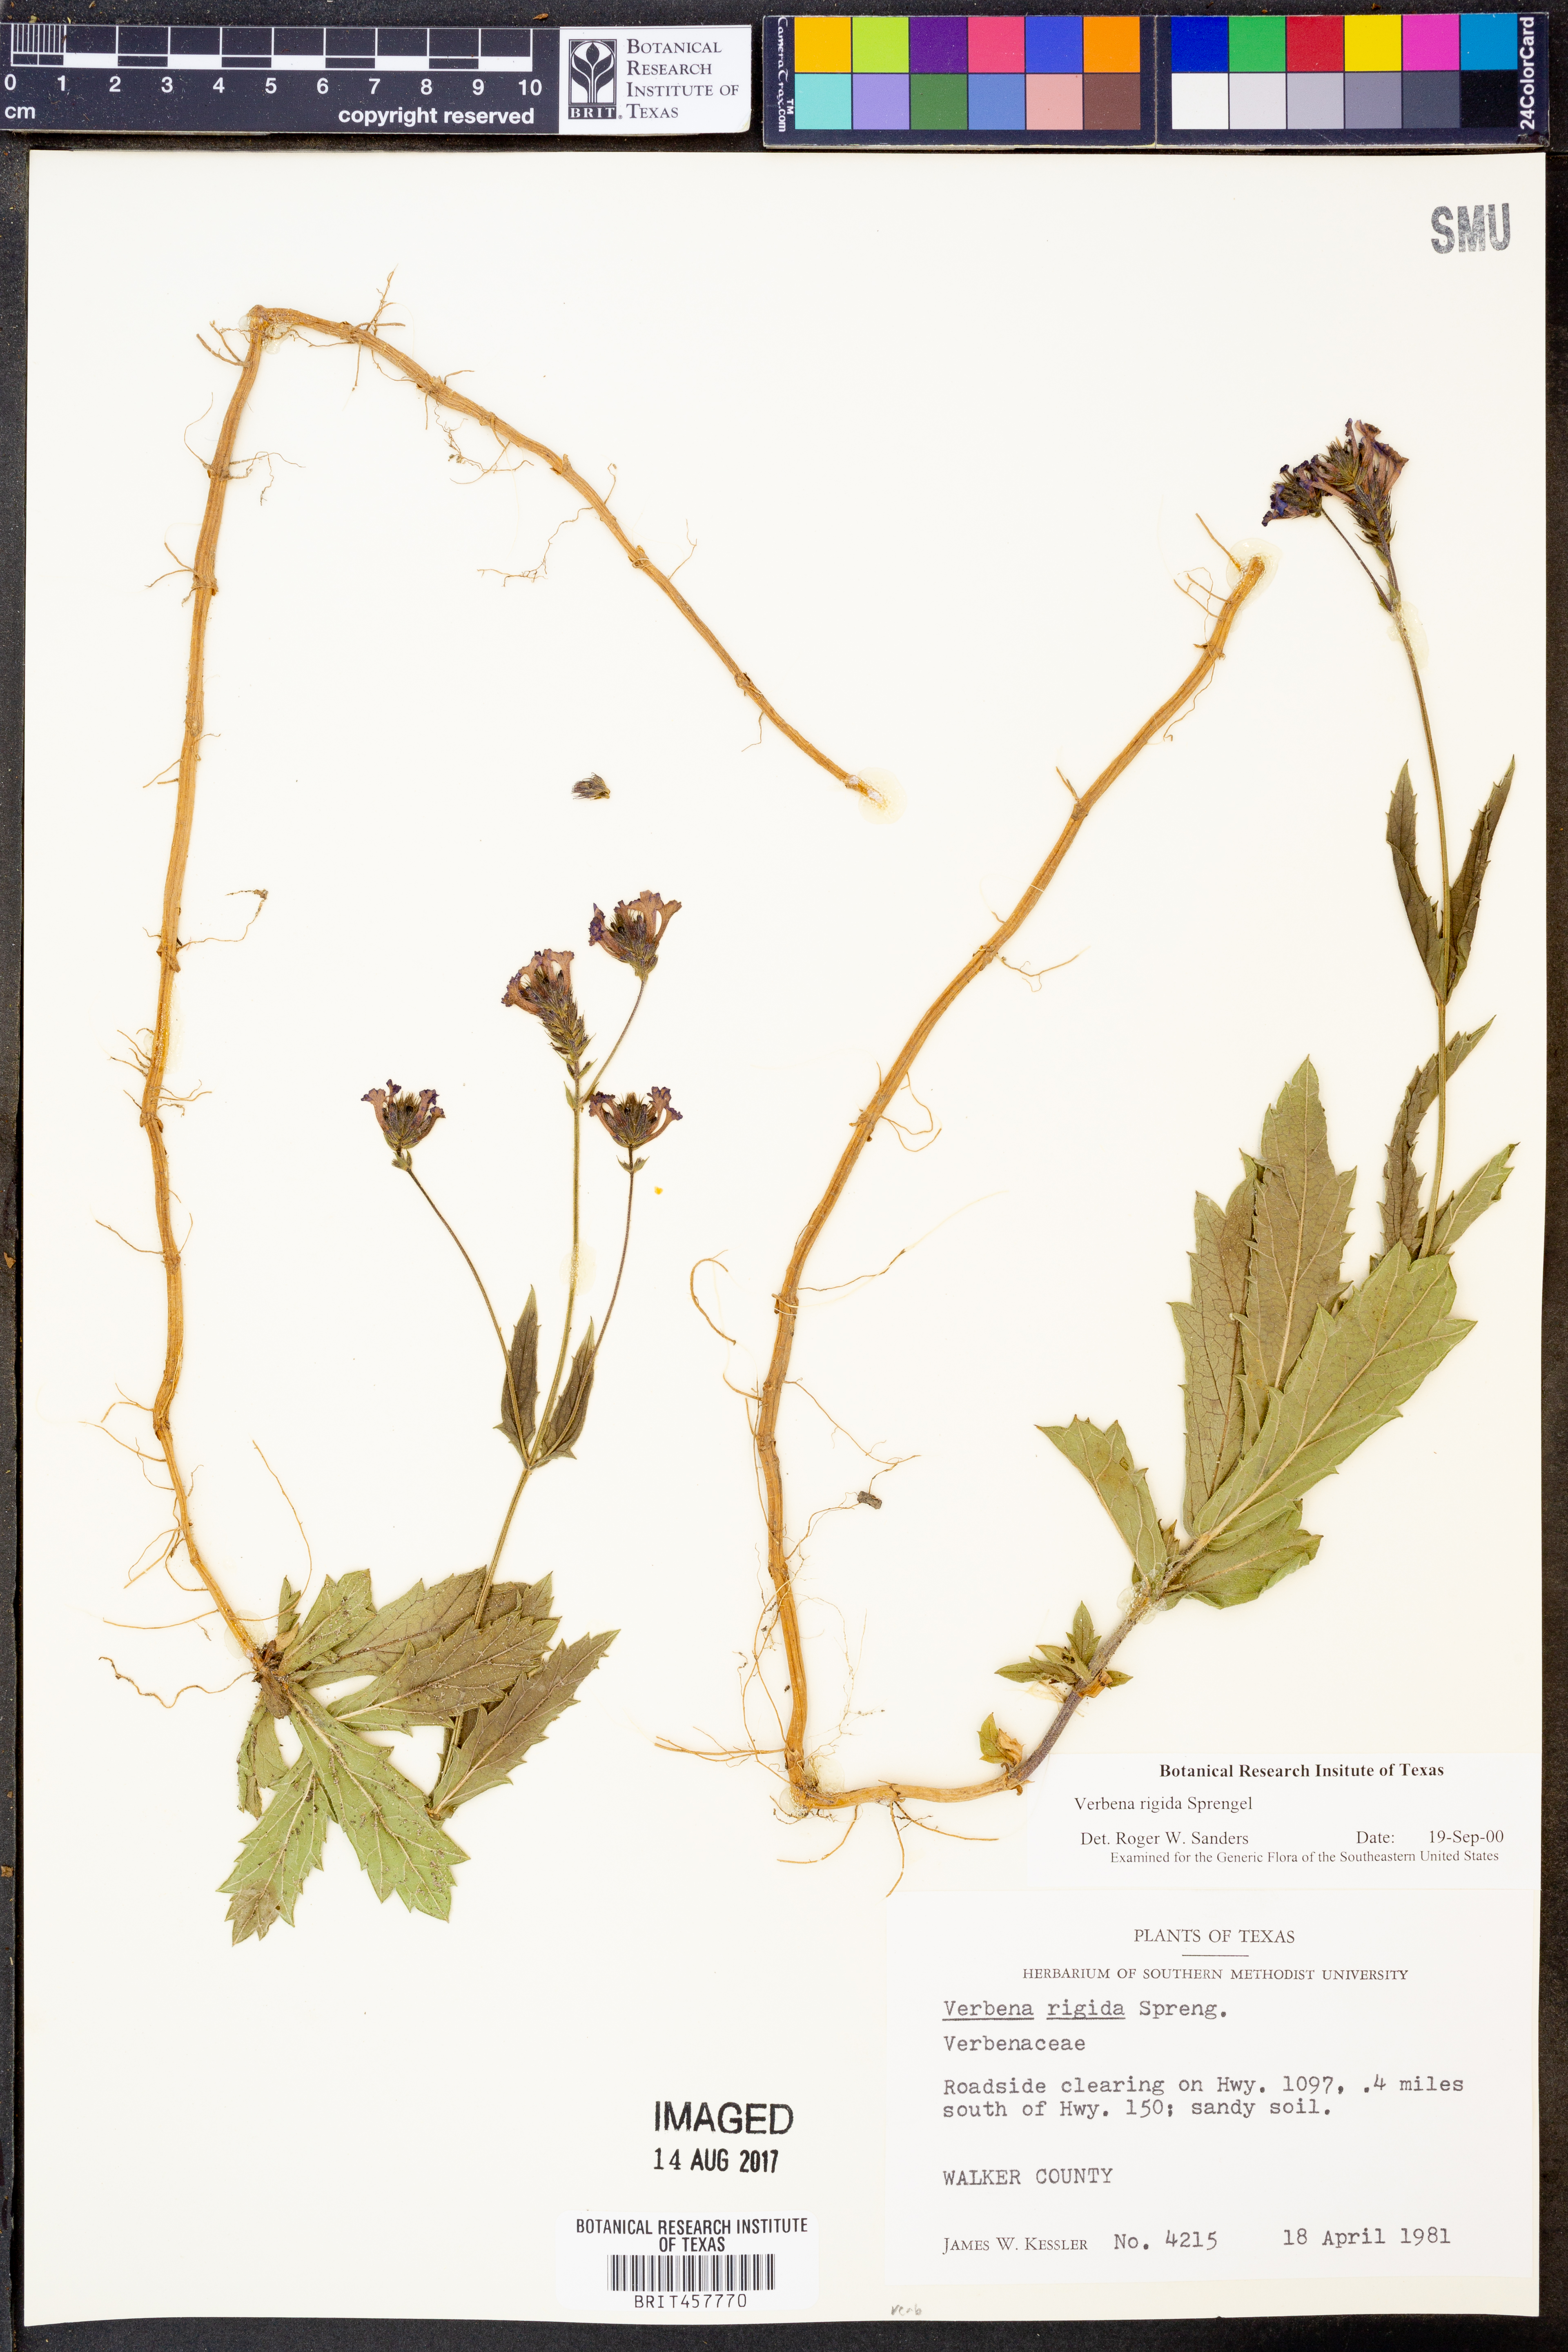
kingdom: Plantae
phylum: Tracheophyta
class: Magnoliopsida
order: Lamiales
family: Verbenaceae
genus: Verbena
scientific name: Verbena rigida
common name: Slender vervain
